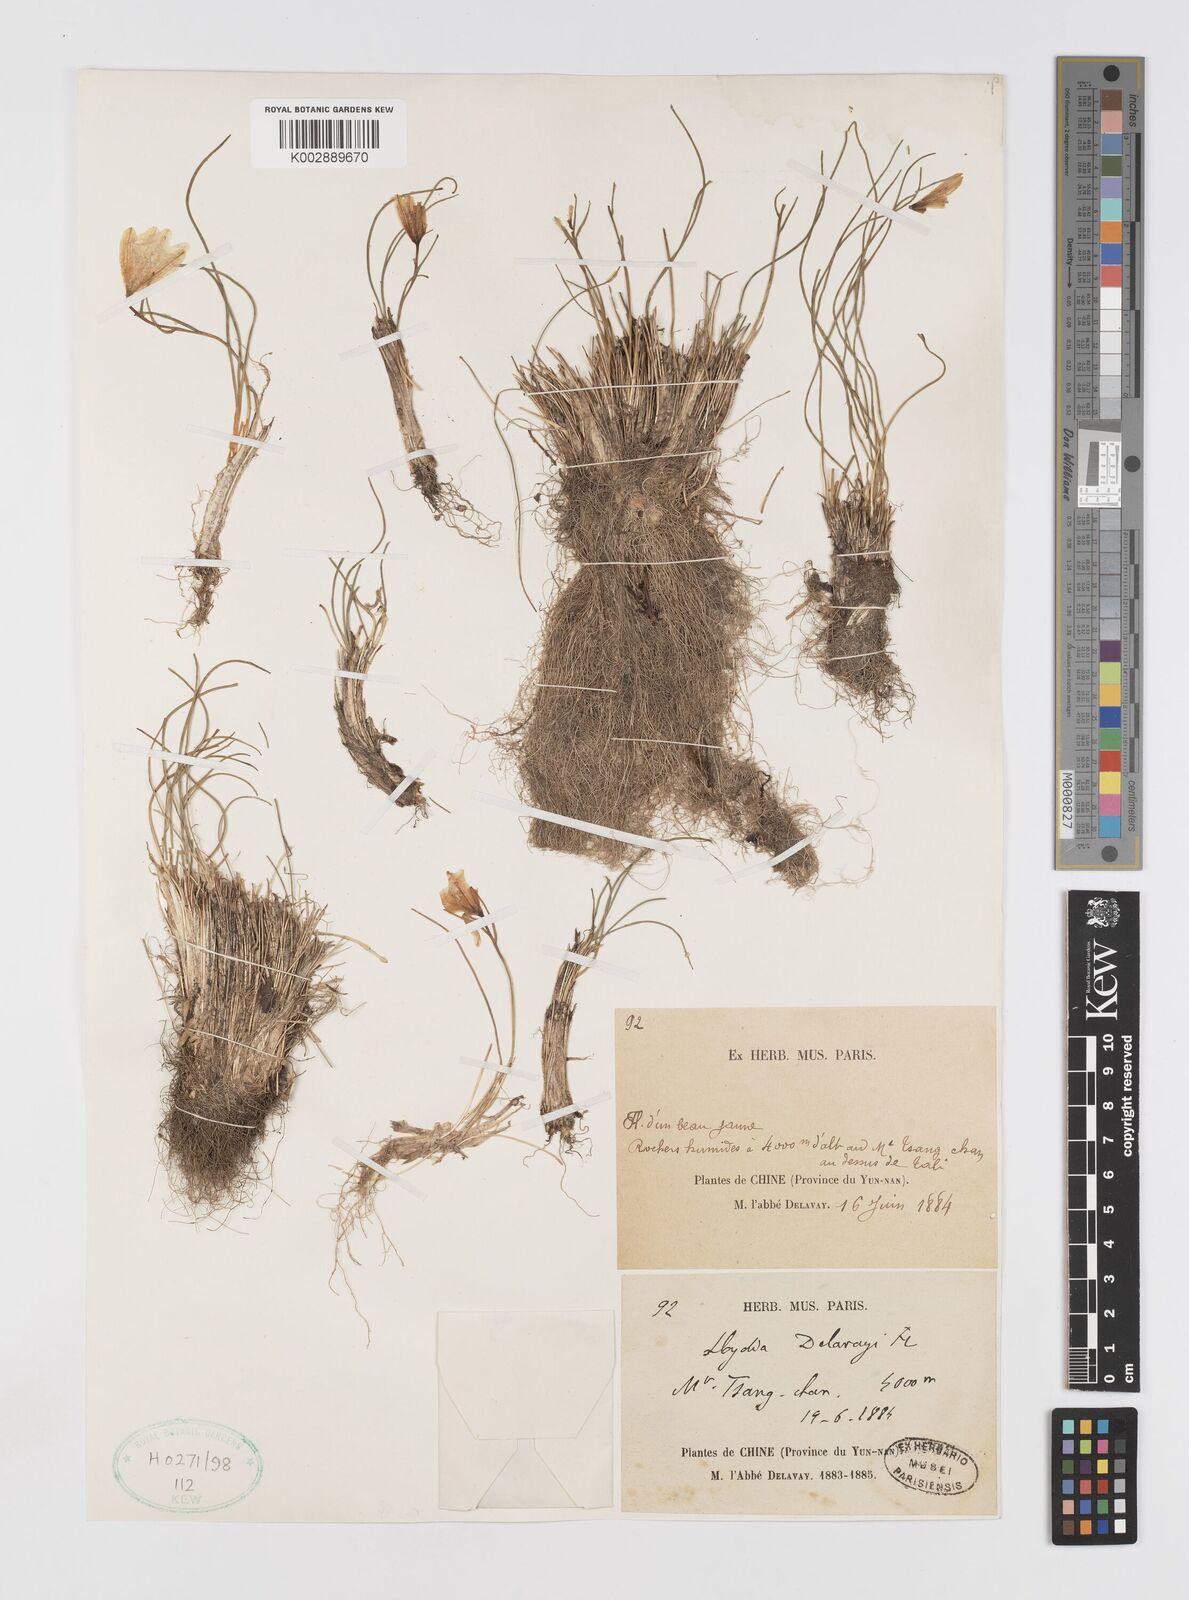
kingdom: Plantae
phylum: Tracheophyta
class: Liliopsida
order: Liliales
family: Liliaceae
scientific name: Liliaceae
